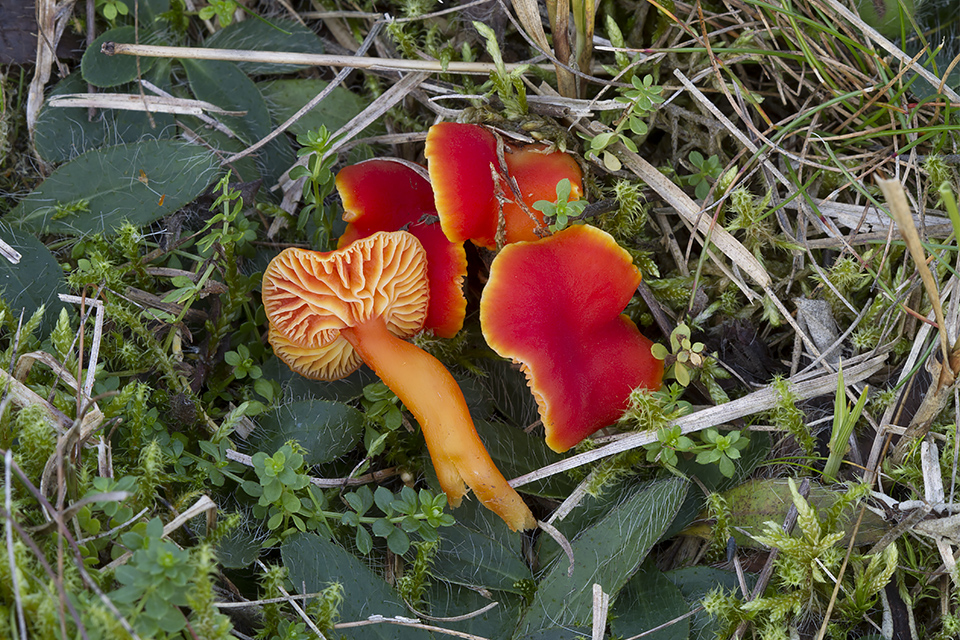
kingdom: Fungi
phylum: Basidiomycota
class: Agaricomycetes
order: Agaricales
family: Hygrophoraceae
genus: Hygrocybe
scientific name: Hygrocybe miniata
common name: mønje-vokshat
